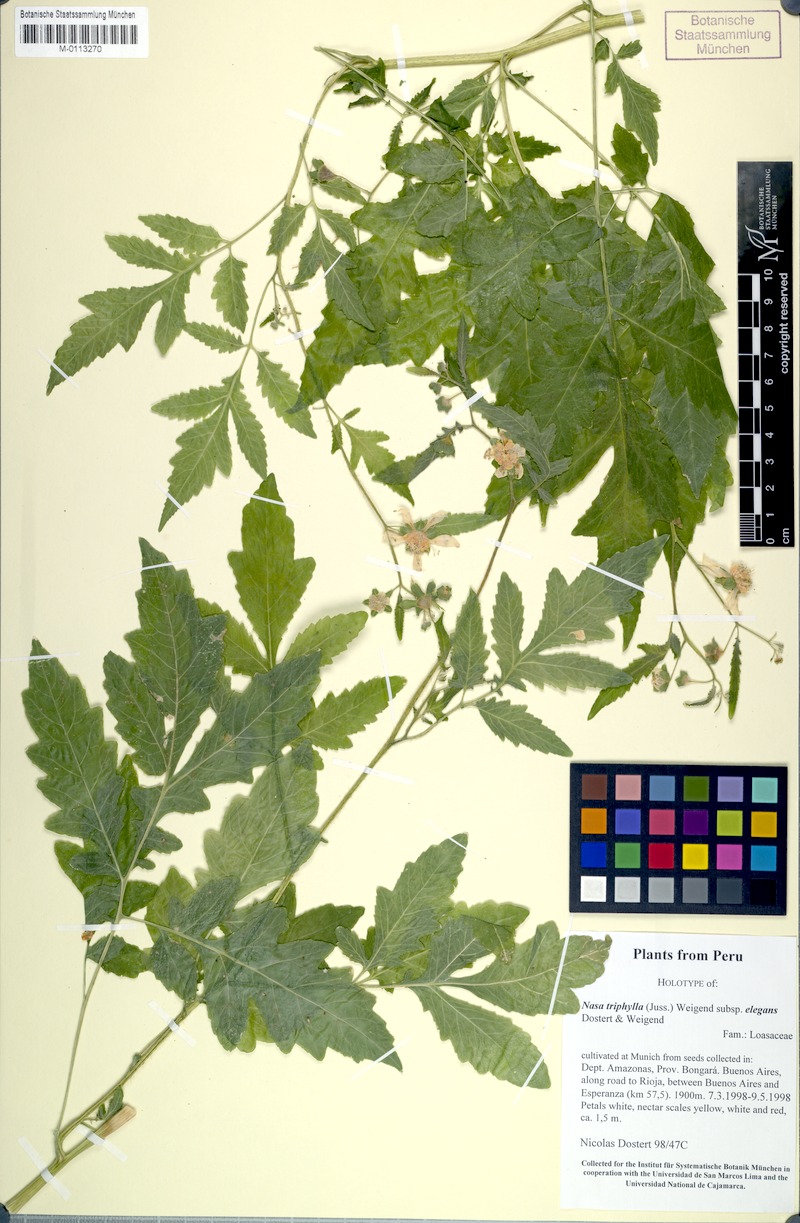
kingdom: Plantae
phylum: Tracheophyta
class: Magnoliopsida
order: Cornales
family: Loasaceae
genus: Nasa
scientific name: Nasa triphylla
